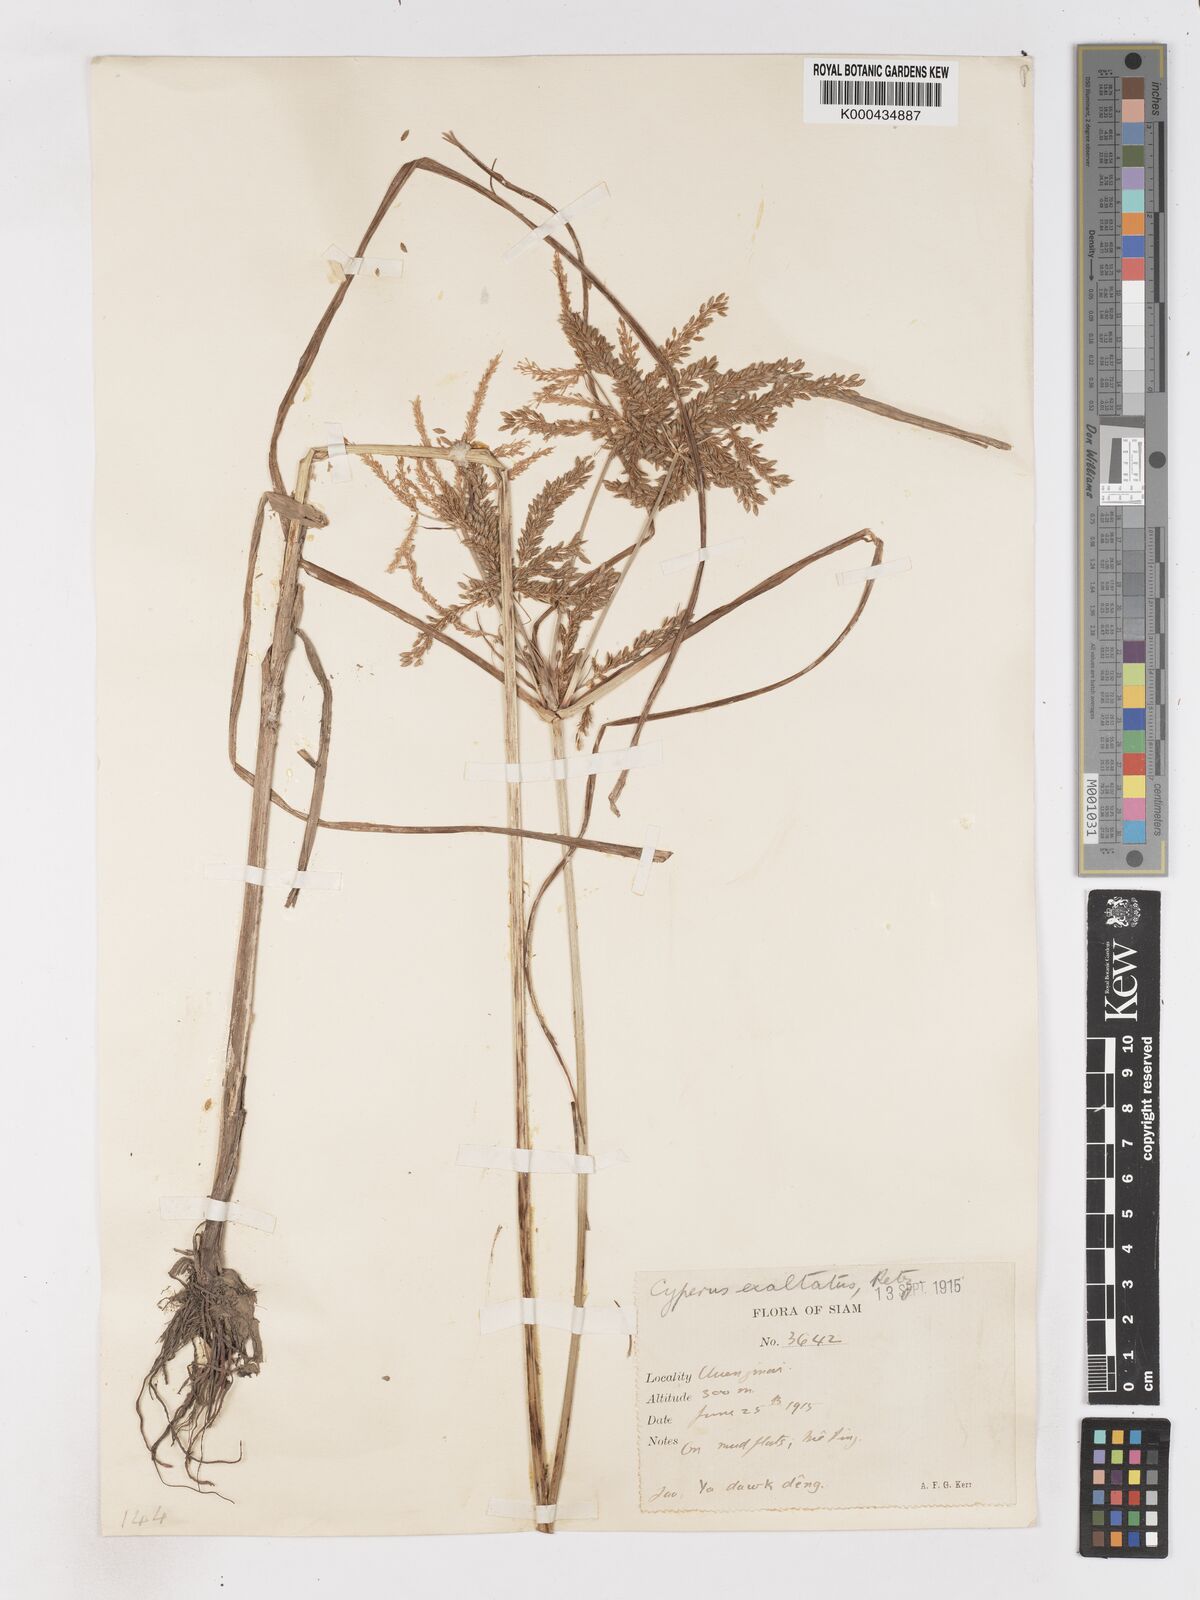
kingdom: Plantae
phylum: Tracheophyta
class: Liliopsida
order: Poales
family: Cyperaceae
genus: Cyperus
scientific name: Cyperus imbricatus
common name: Shingle flatsedge
